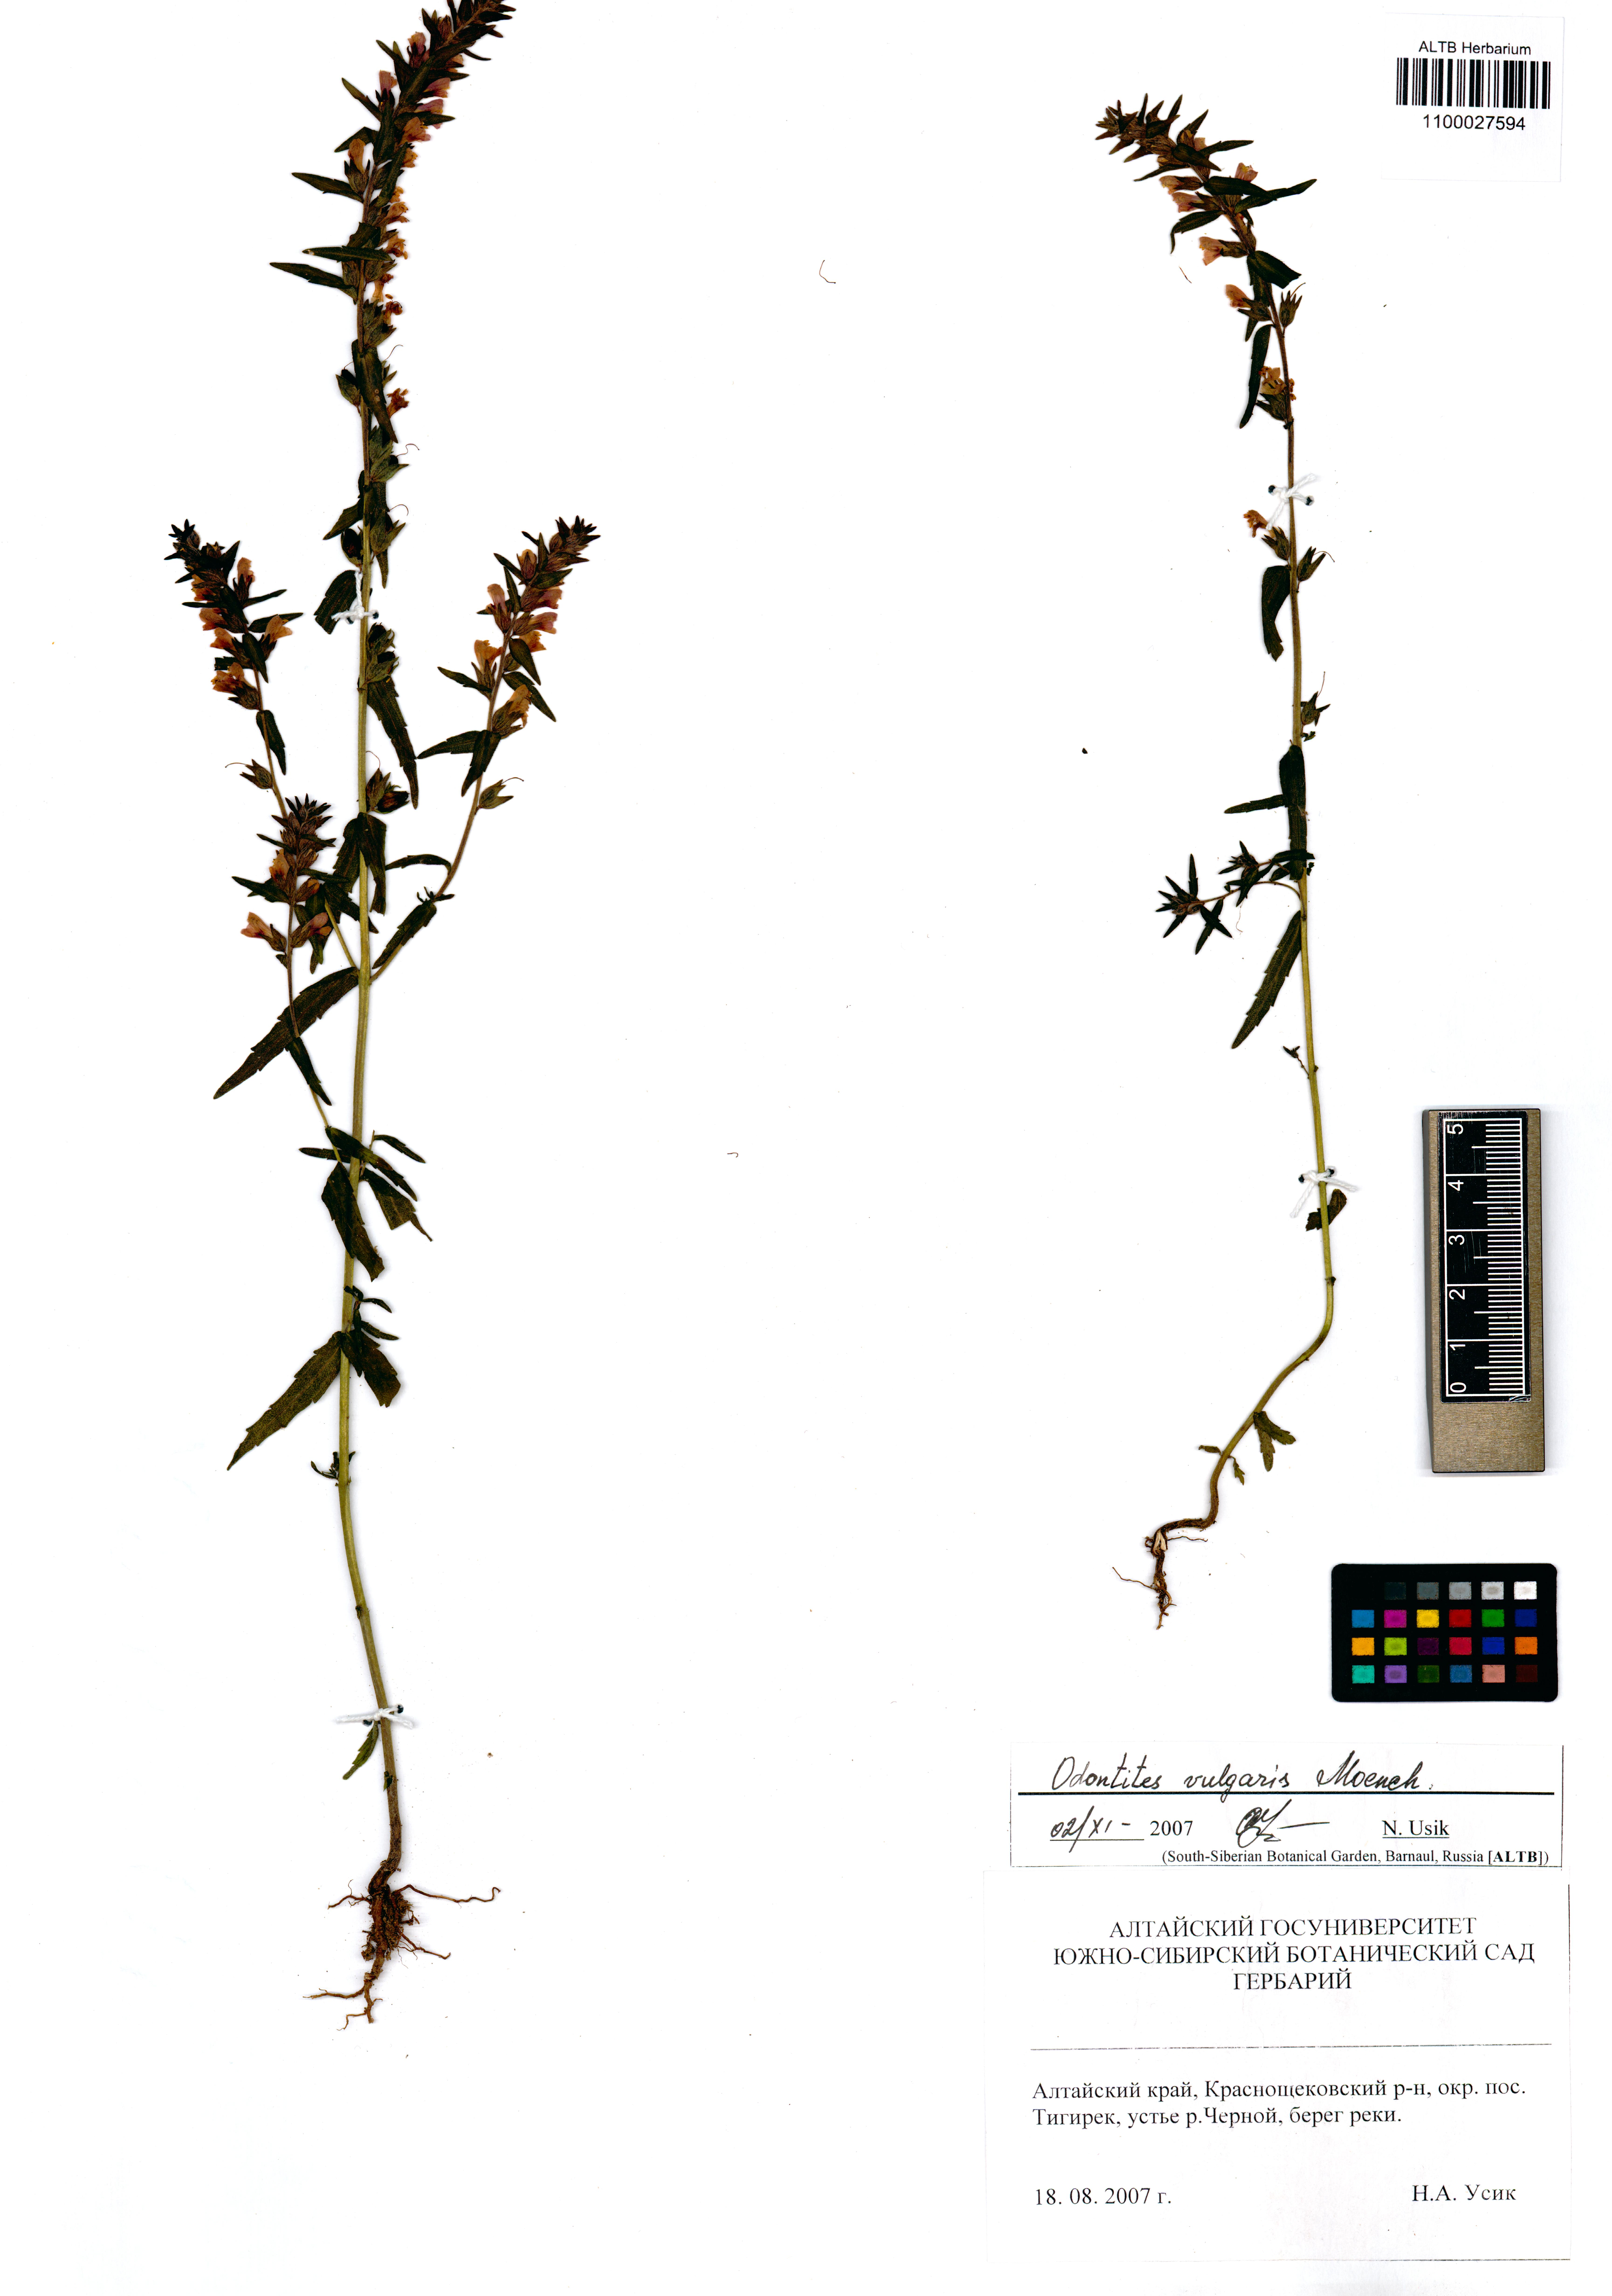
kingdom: Plantae
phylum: Tracheophyta
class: Magnoliopsida
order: Lamiales
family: Orobanchaceae
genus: Odontites
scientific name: Odontites vulgaris
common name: Broomrape
